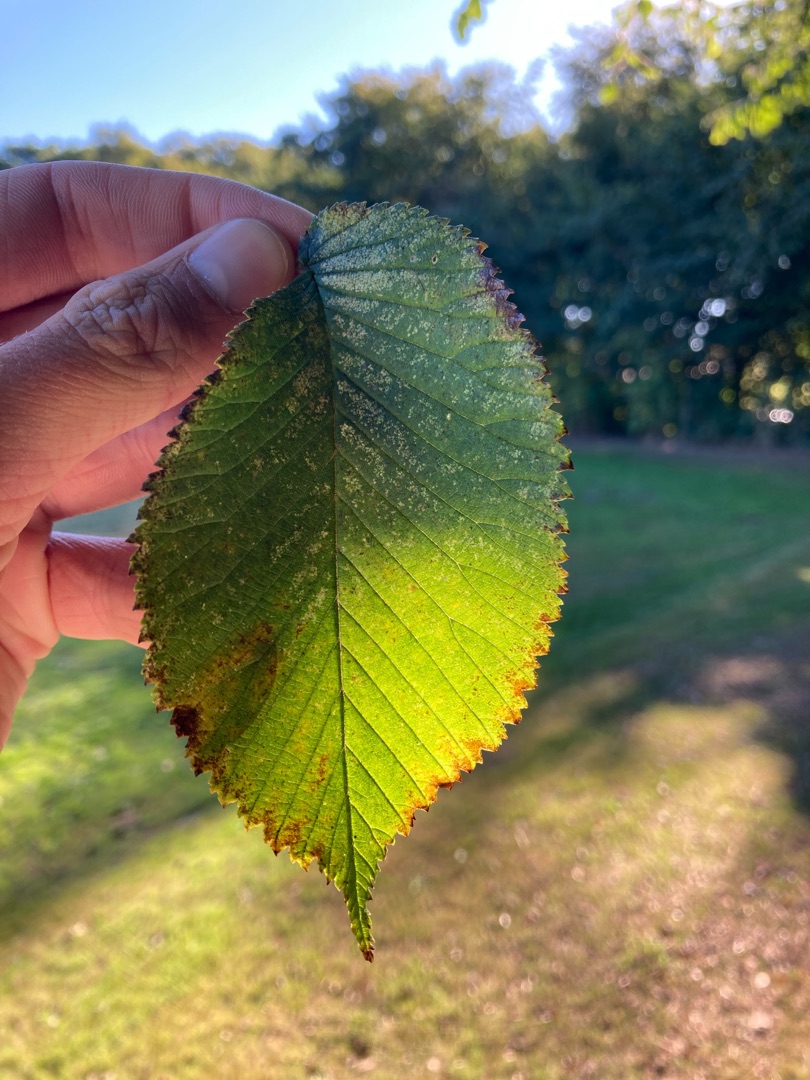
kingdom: Plantae
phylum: Tracheophyta
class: Magnoliopsida
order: Rosales
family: Ulmaceae
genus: Ulmus
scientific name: Ulmus glabra
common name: Skov-elm/storbladet elm
